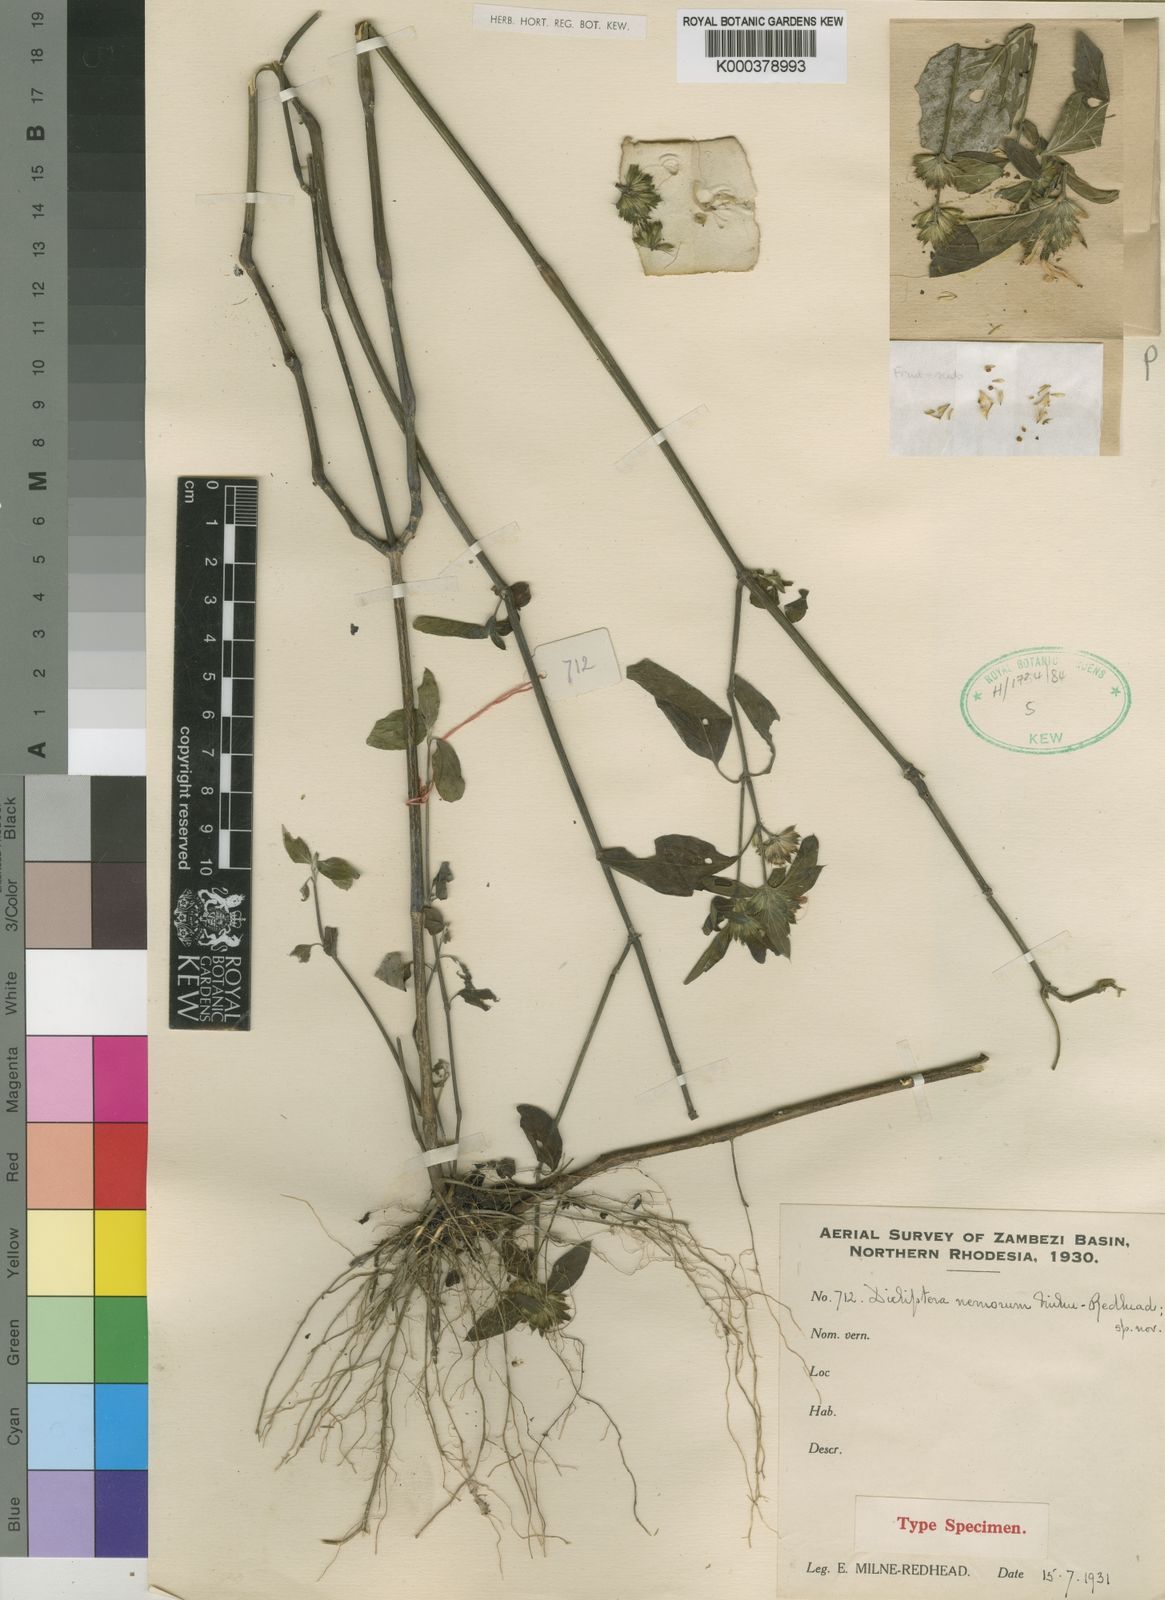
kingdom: Plantae
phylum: Tracheophyta
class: Magnoliopsida
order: Lamiales
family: Acanthaceae
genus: Dicliptera
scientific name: Dicliptera carvalhoi
